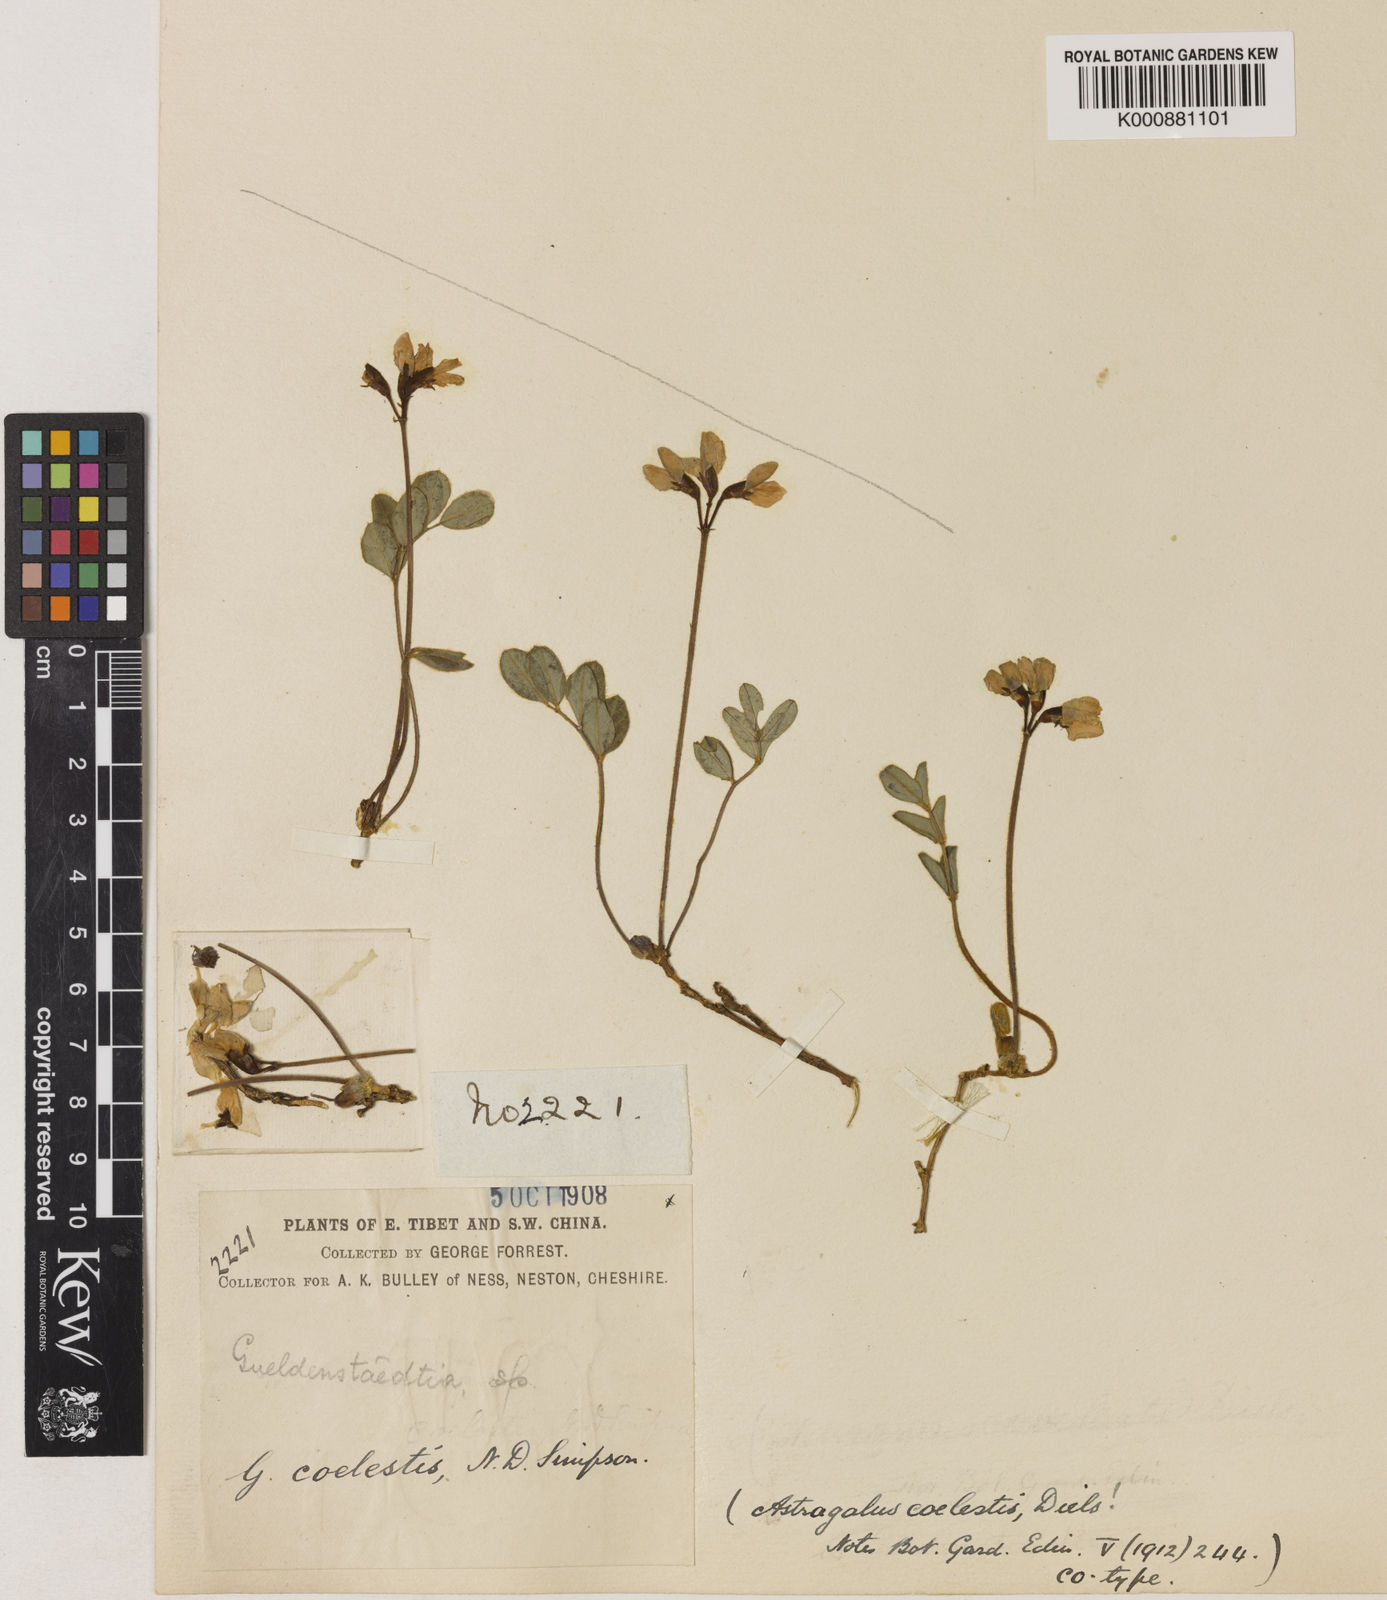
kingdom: Plantae
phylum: Tracheophyta
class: Magnoliopsida
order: Fabales
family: Fabaceae
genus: Tibetia
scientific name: Tibetia coelestis
